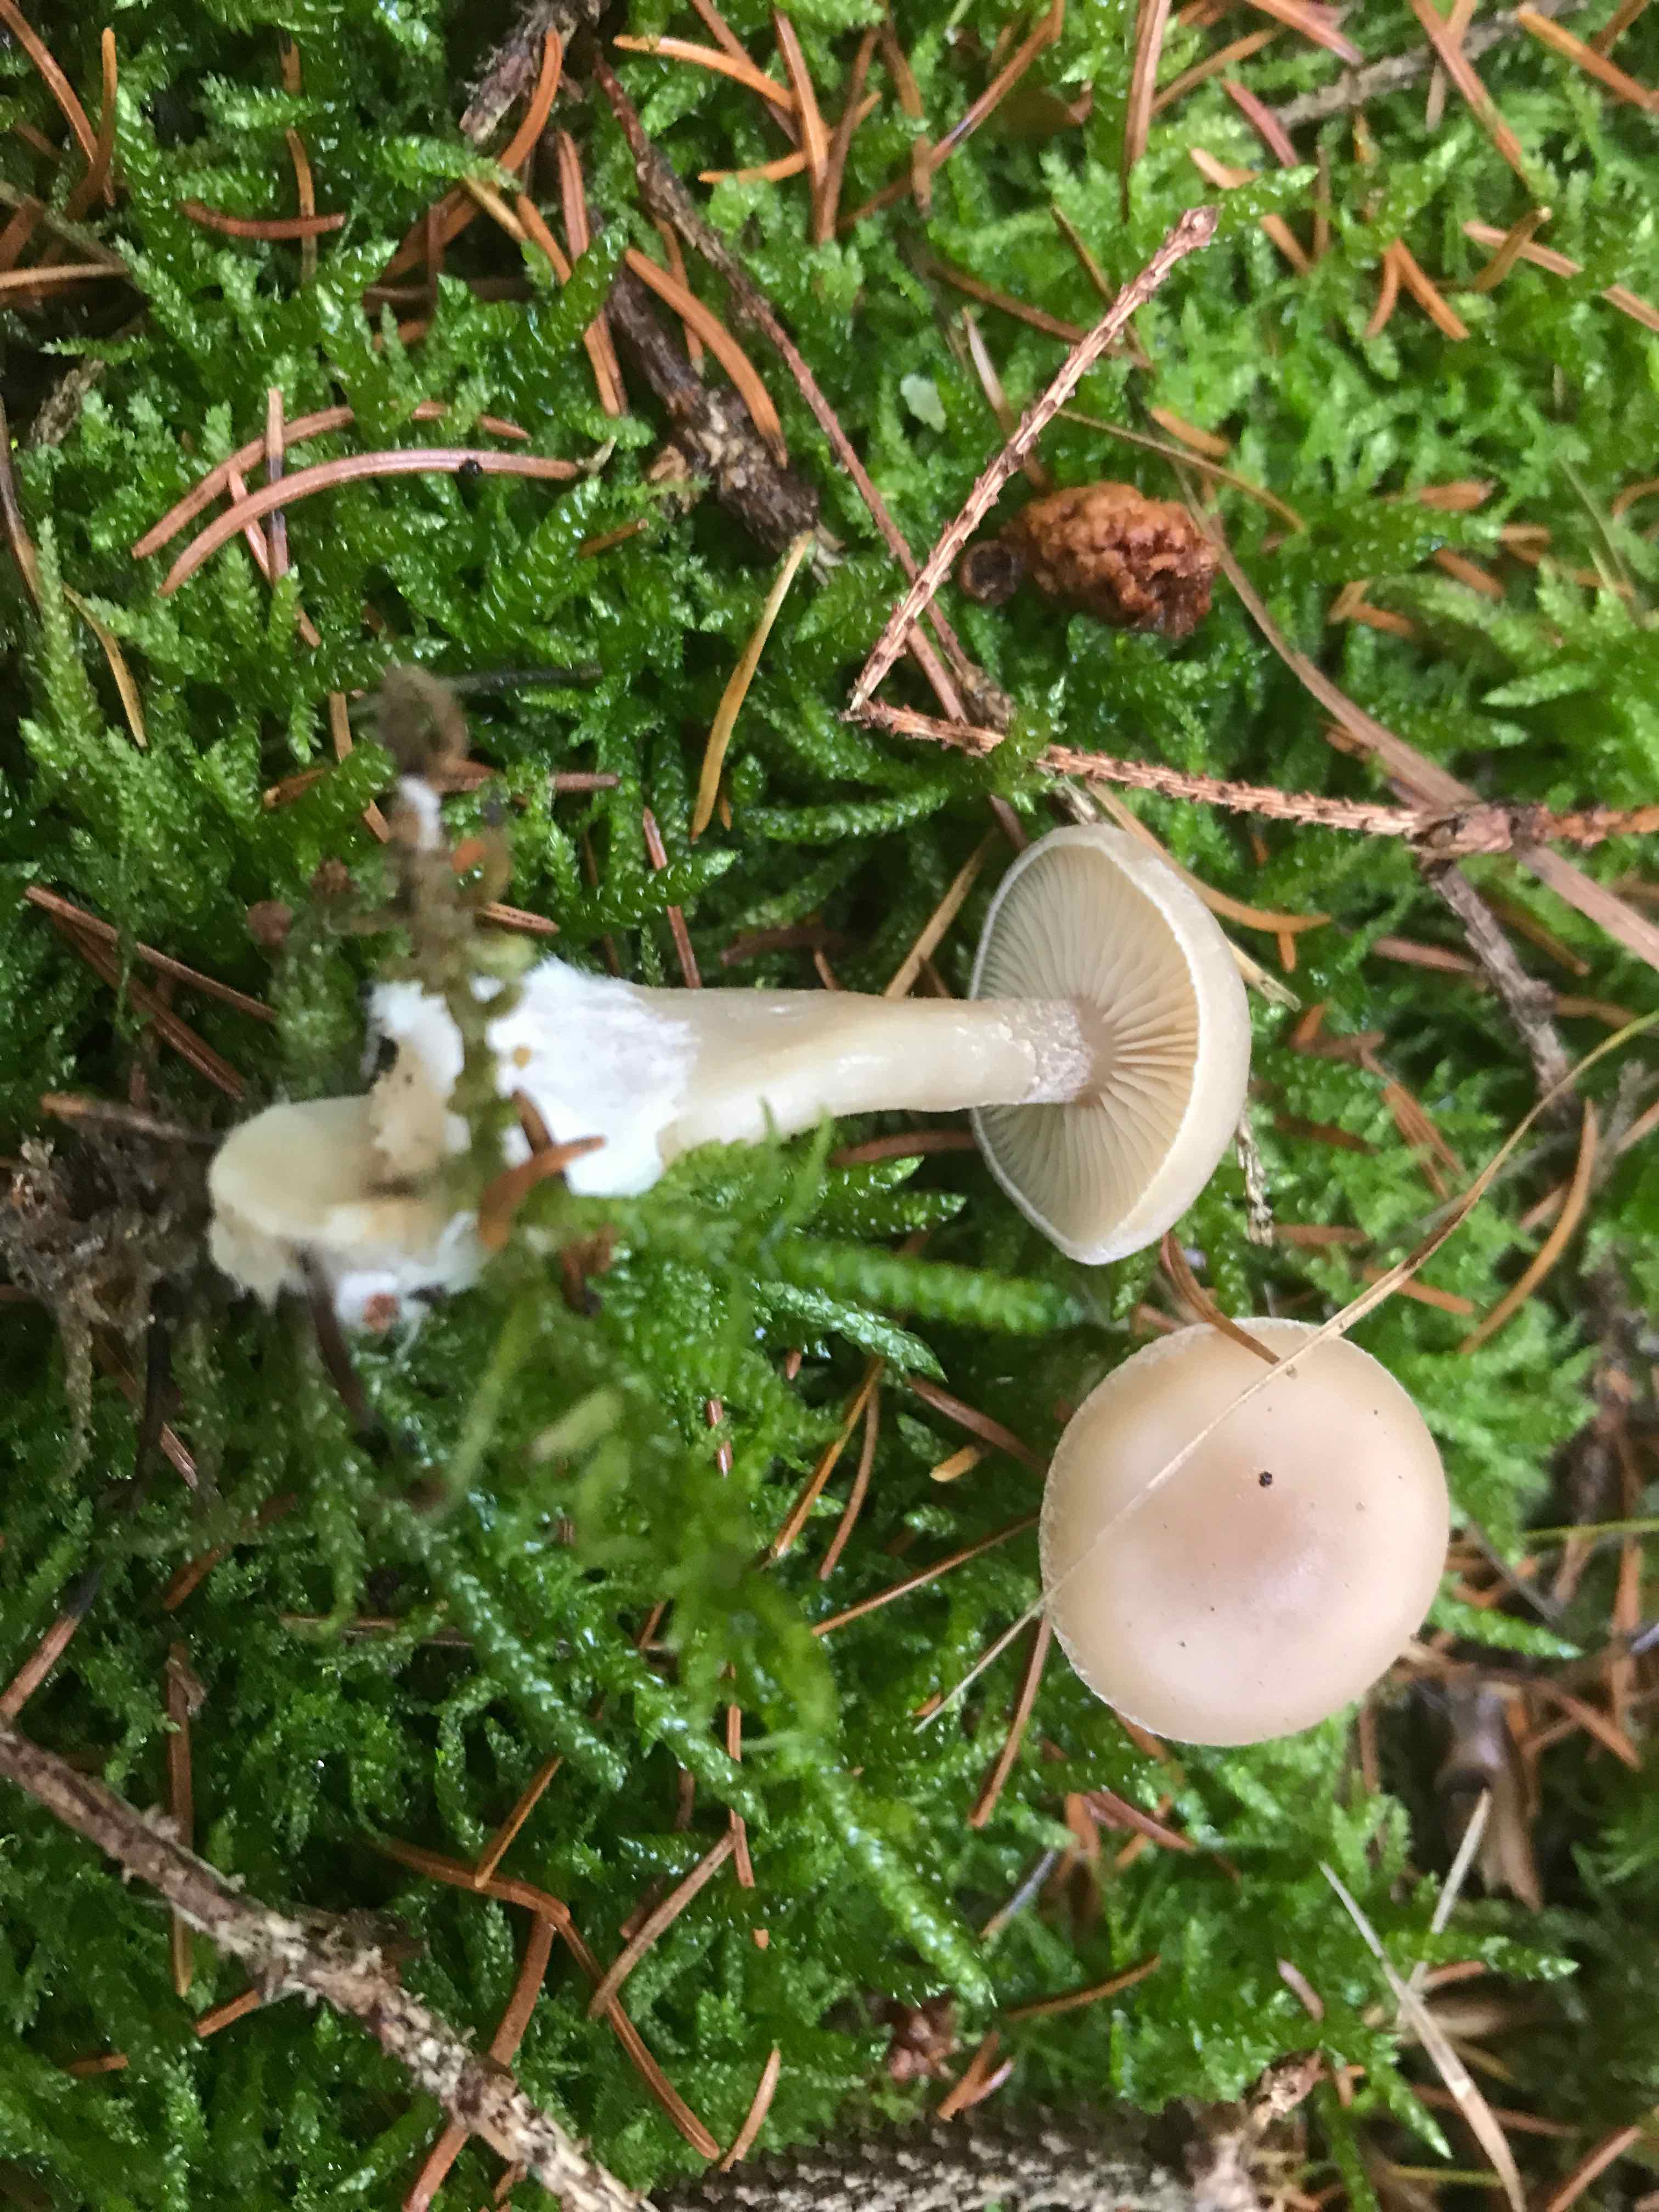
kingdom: Fungi
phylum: Basidiomycota
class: Agaricomycetes
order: Agaricales
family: Tricholomataceae
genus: Clitocybe
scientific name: Clitocybe metachroa
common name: grå tragthat
